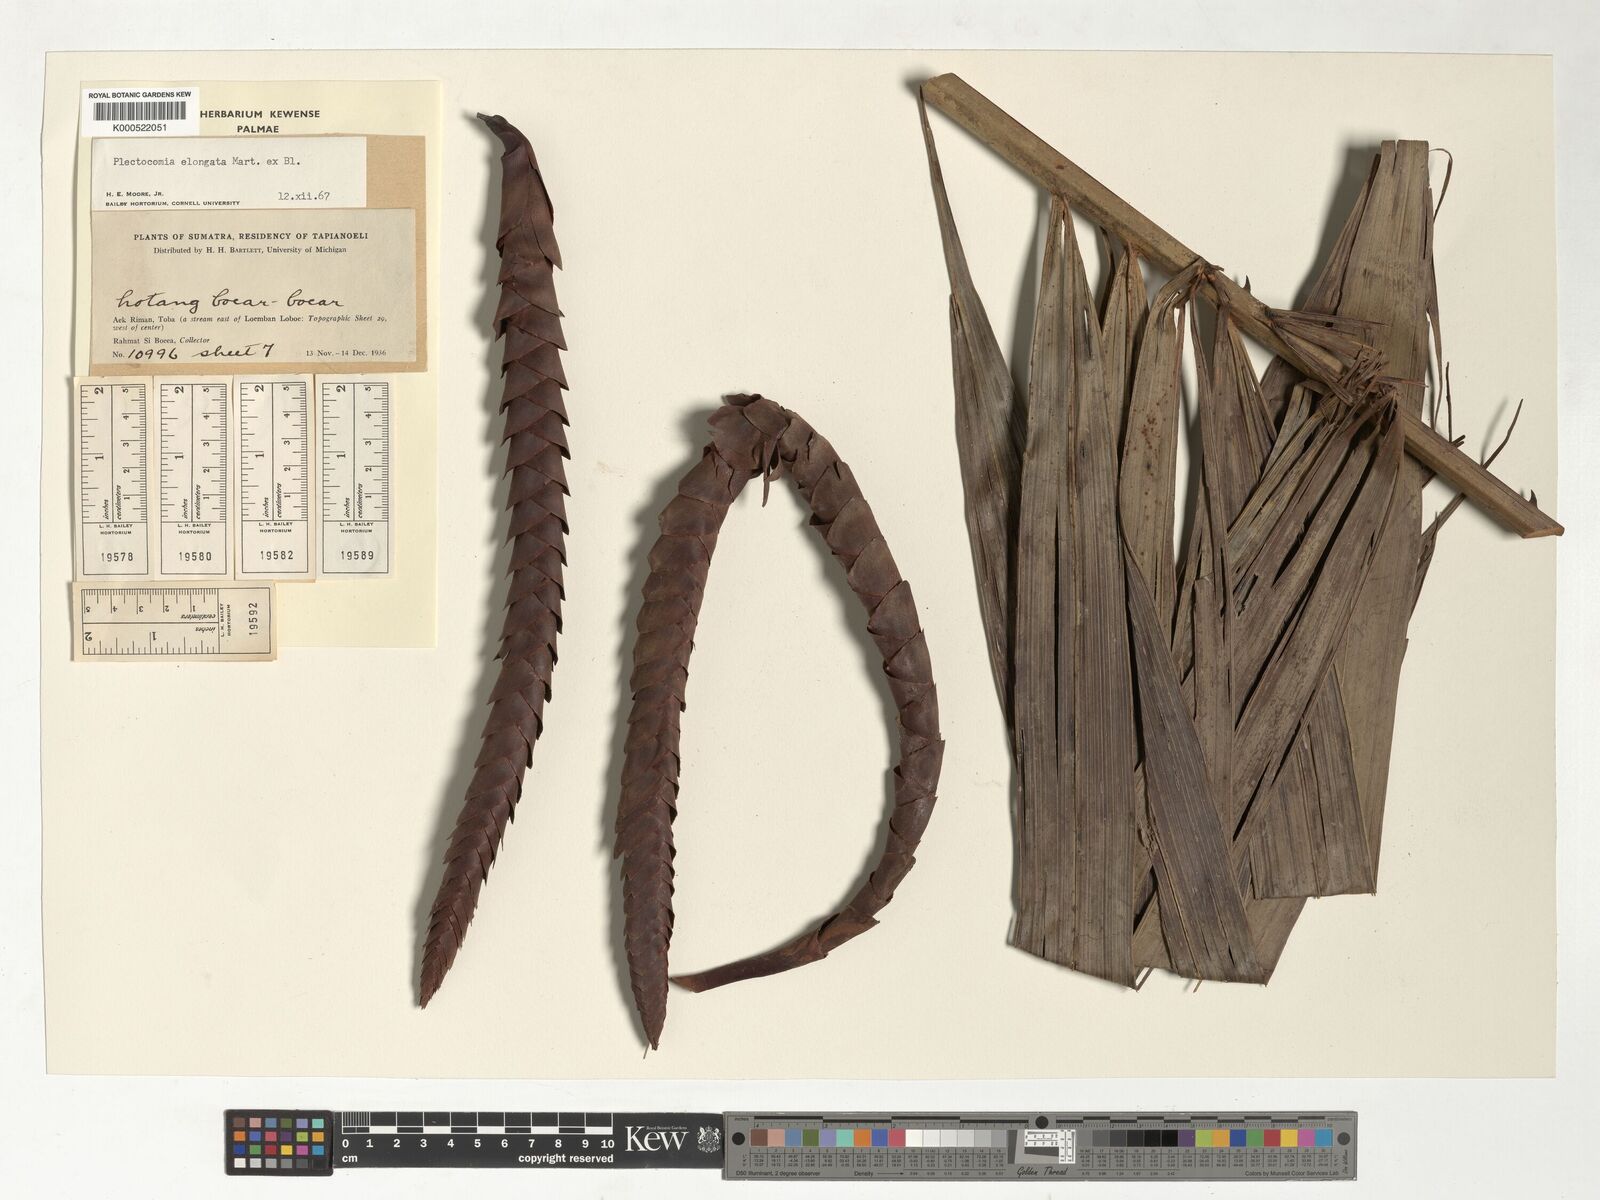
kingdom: Plantae
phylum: Tracheophyta
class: Liliopsida
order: Arecales
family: Arecaceae
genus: Plectocomia
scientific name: Plectocomia elongata
